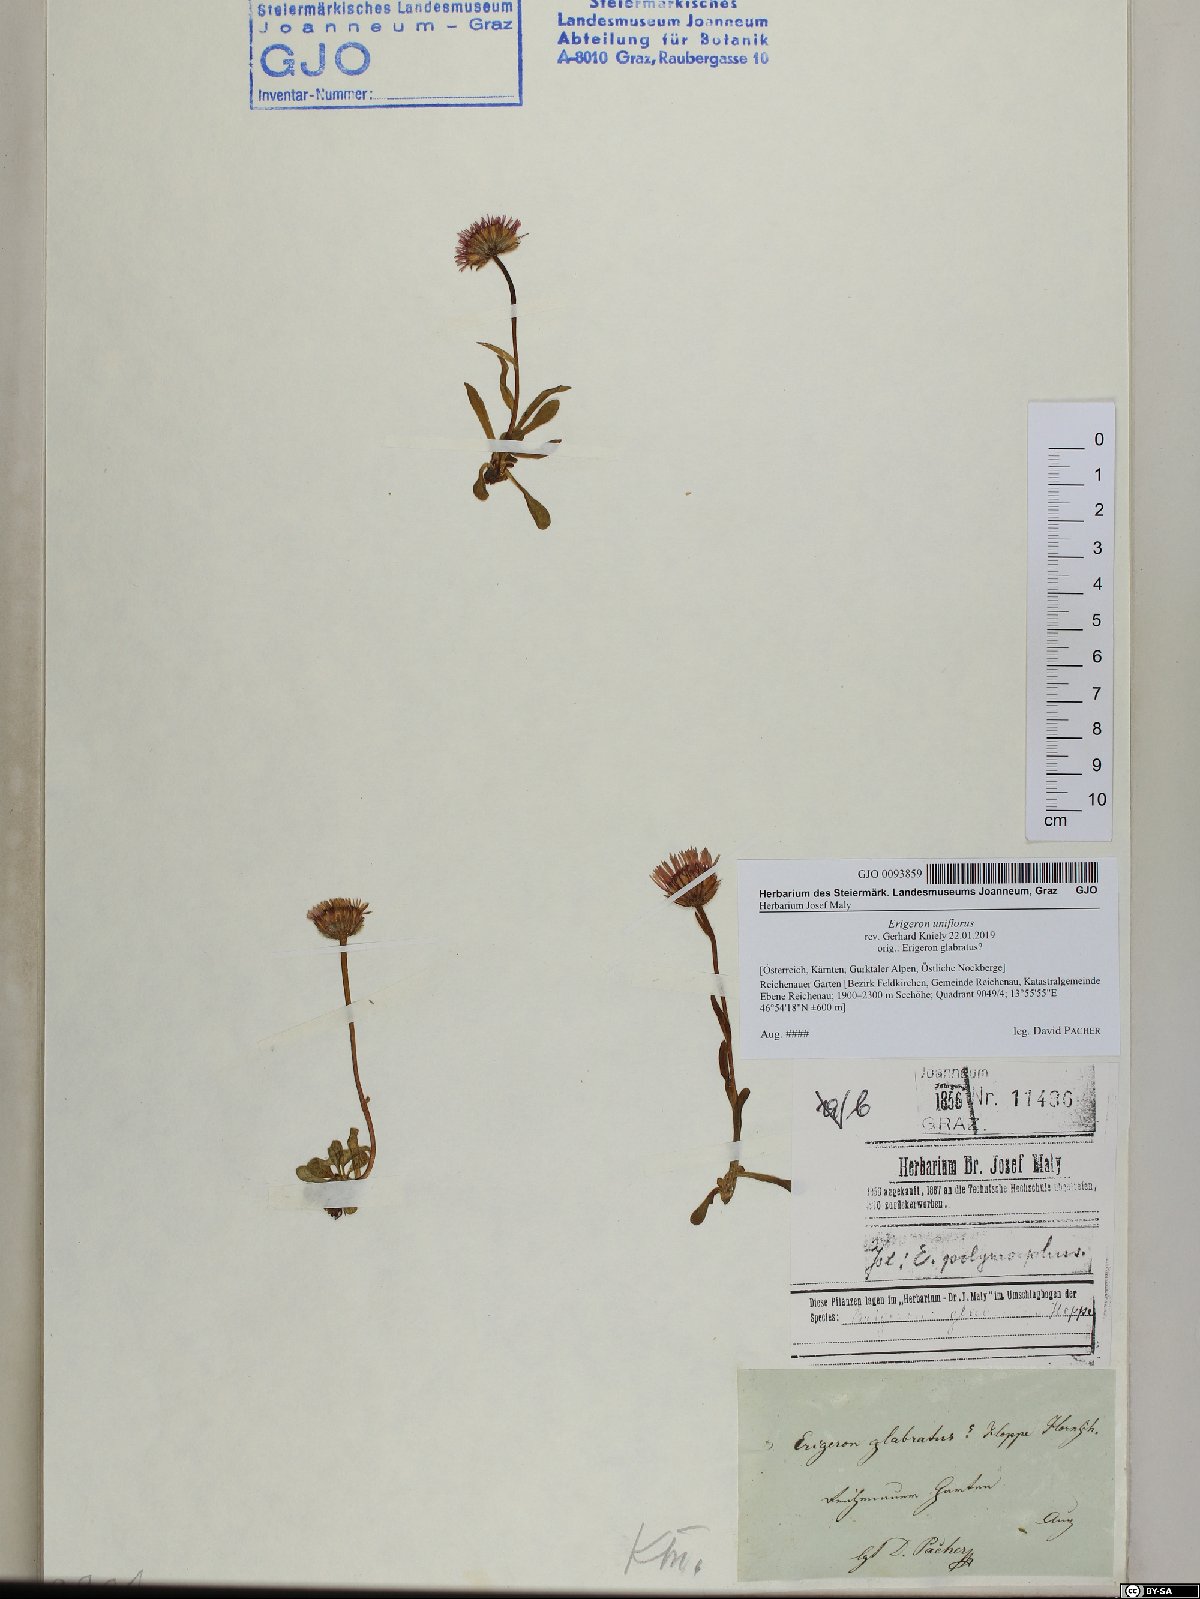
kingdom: Plantae
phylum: Tracheophyta
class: Magnoliopsida
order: Asterales
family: Asteraceae
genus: Erigeron
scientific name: Erigeron uniflorus
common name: Northern daisy
